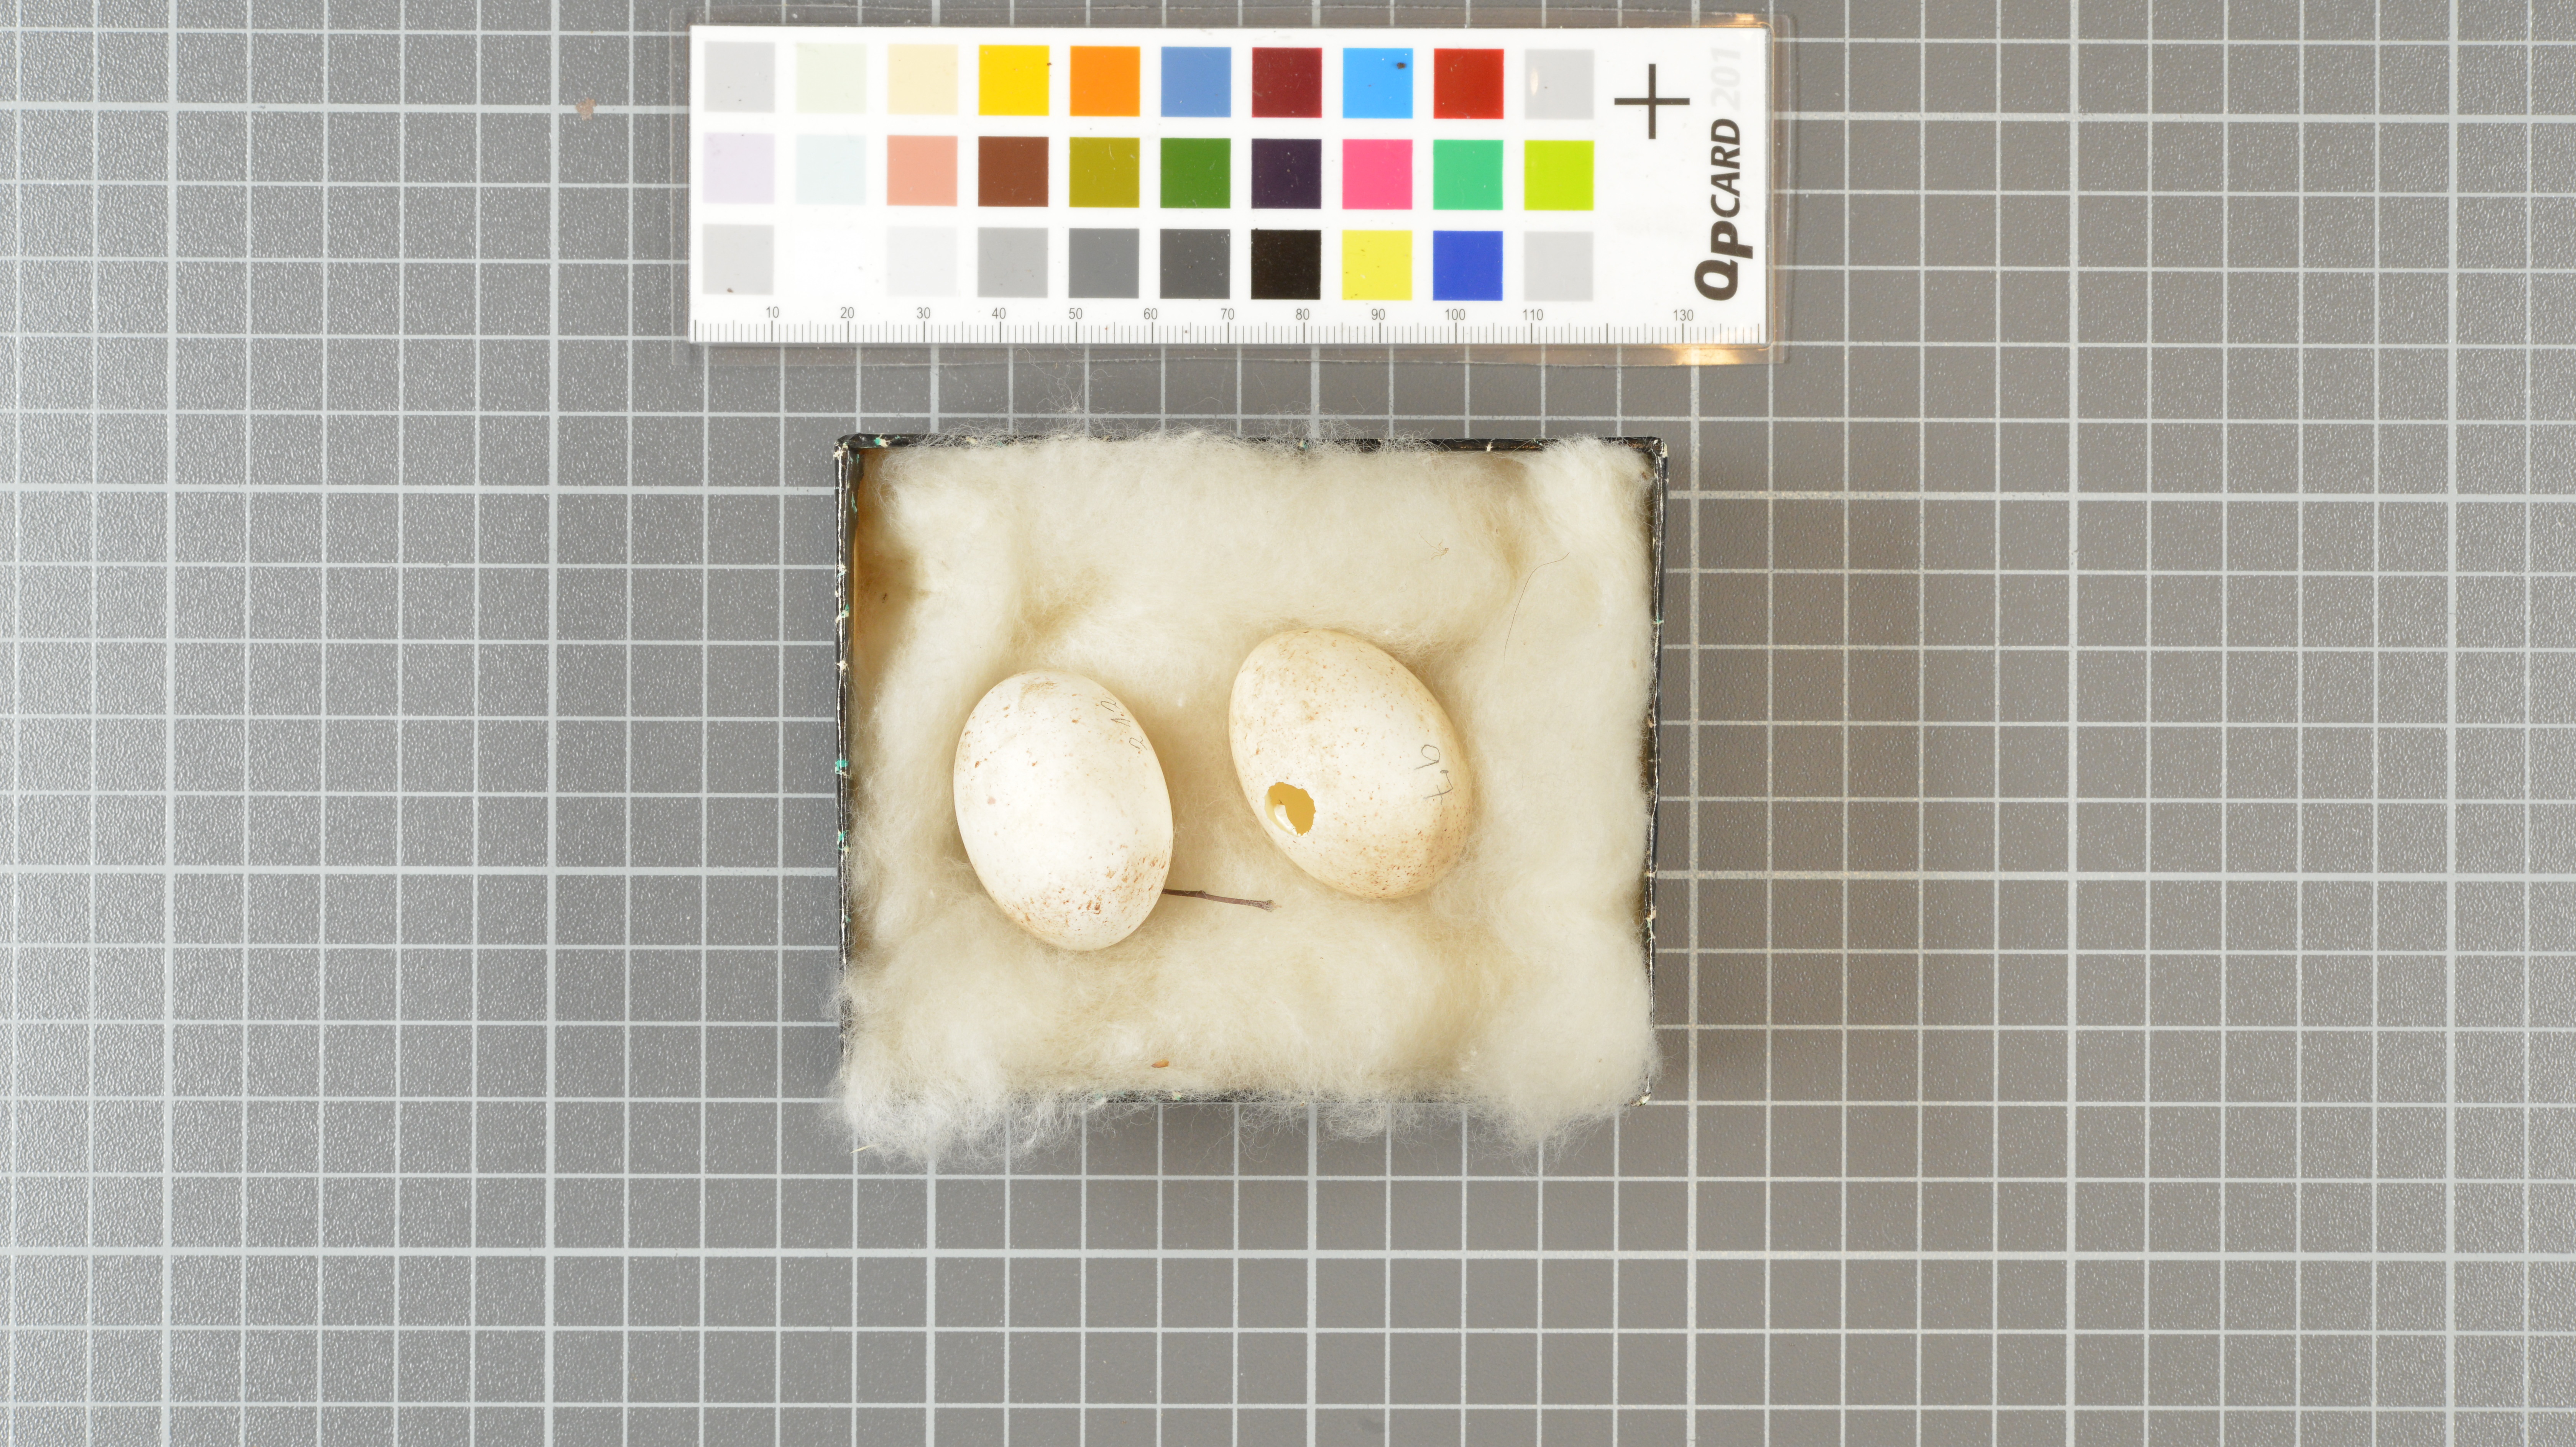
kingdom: Animalia
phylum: Chordata
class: Aves
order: Procellariiformes
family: Hydrobatidae
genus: Fregetta
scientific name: Fregetta grallaria
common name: White-bellied storm-petrel
